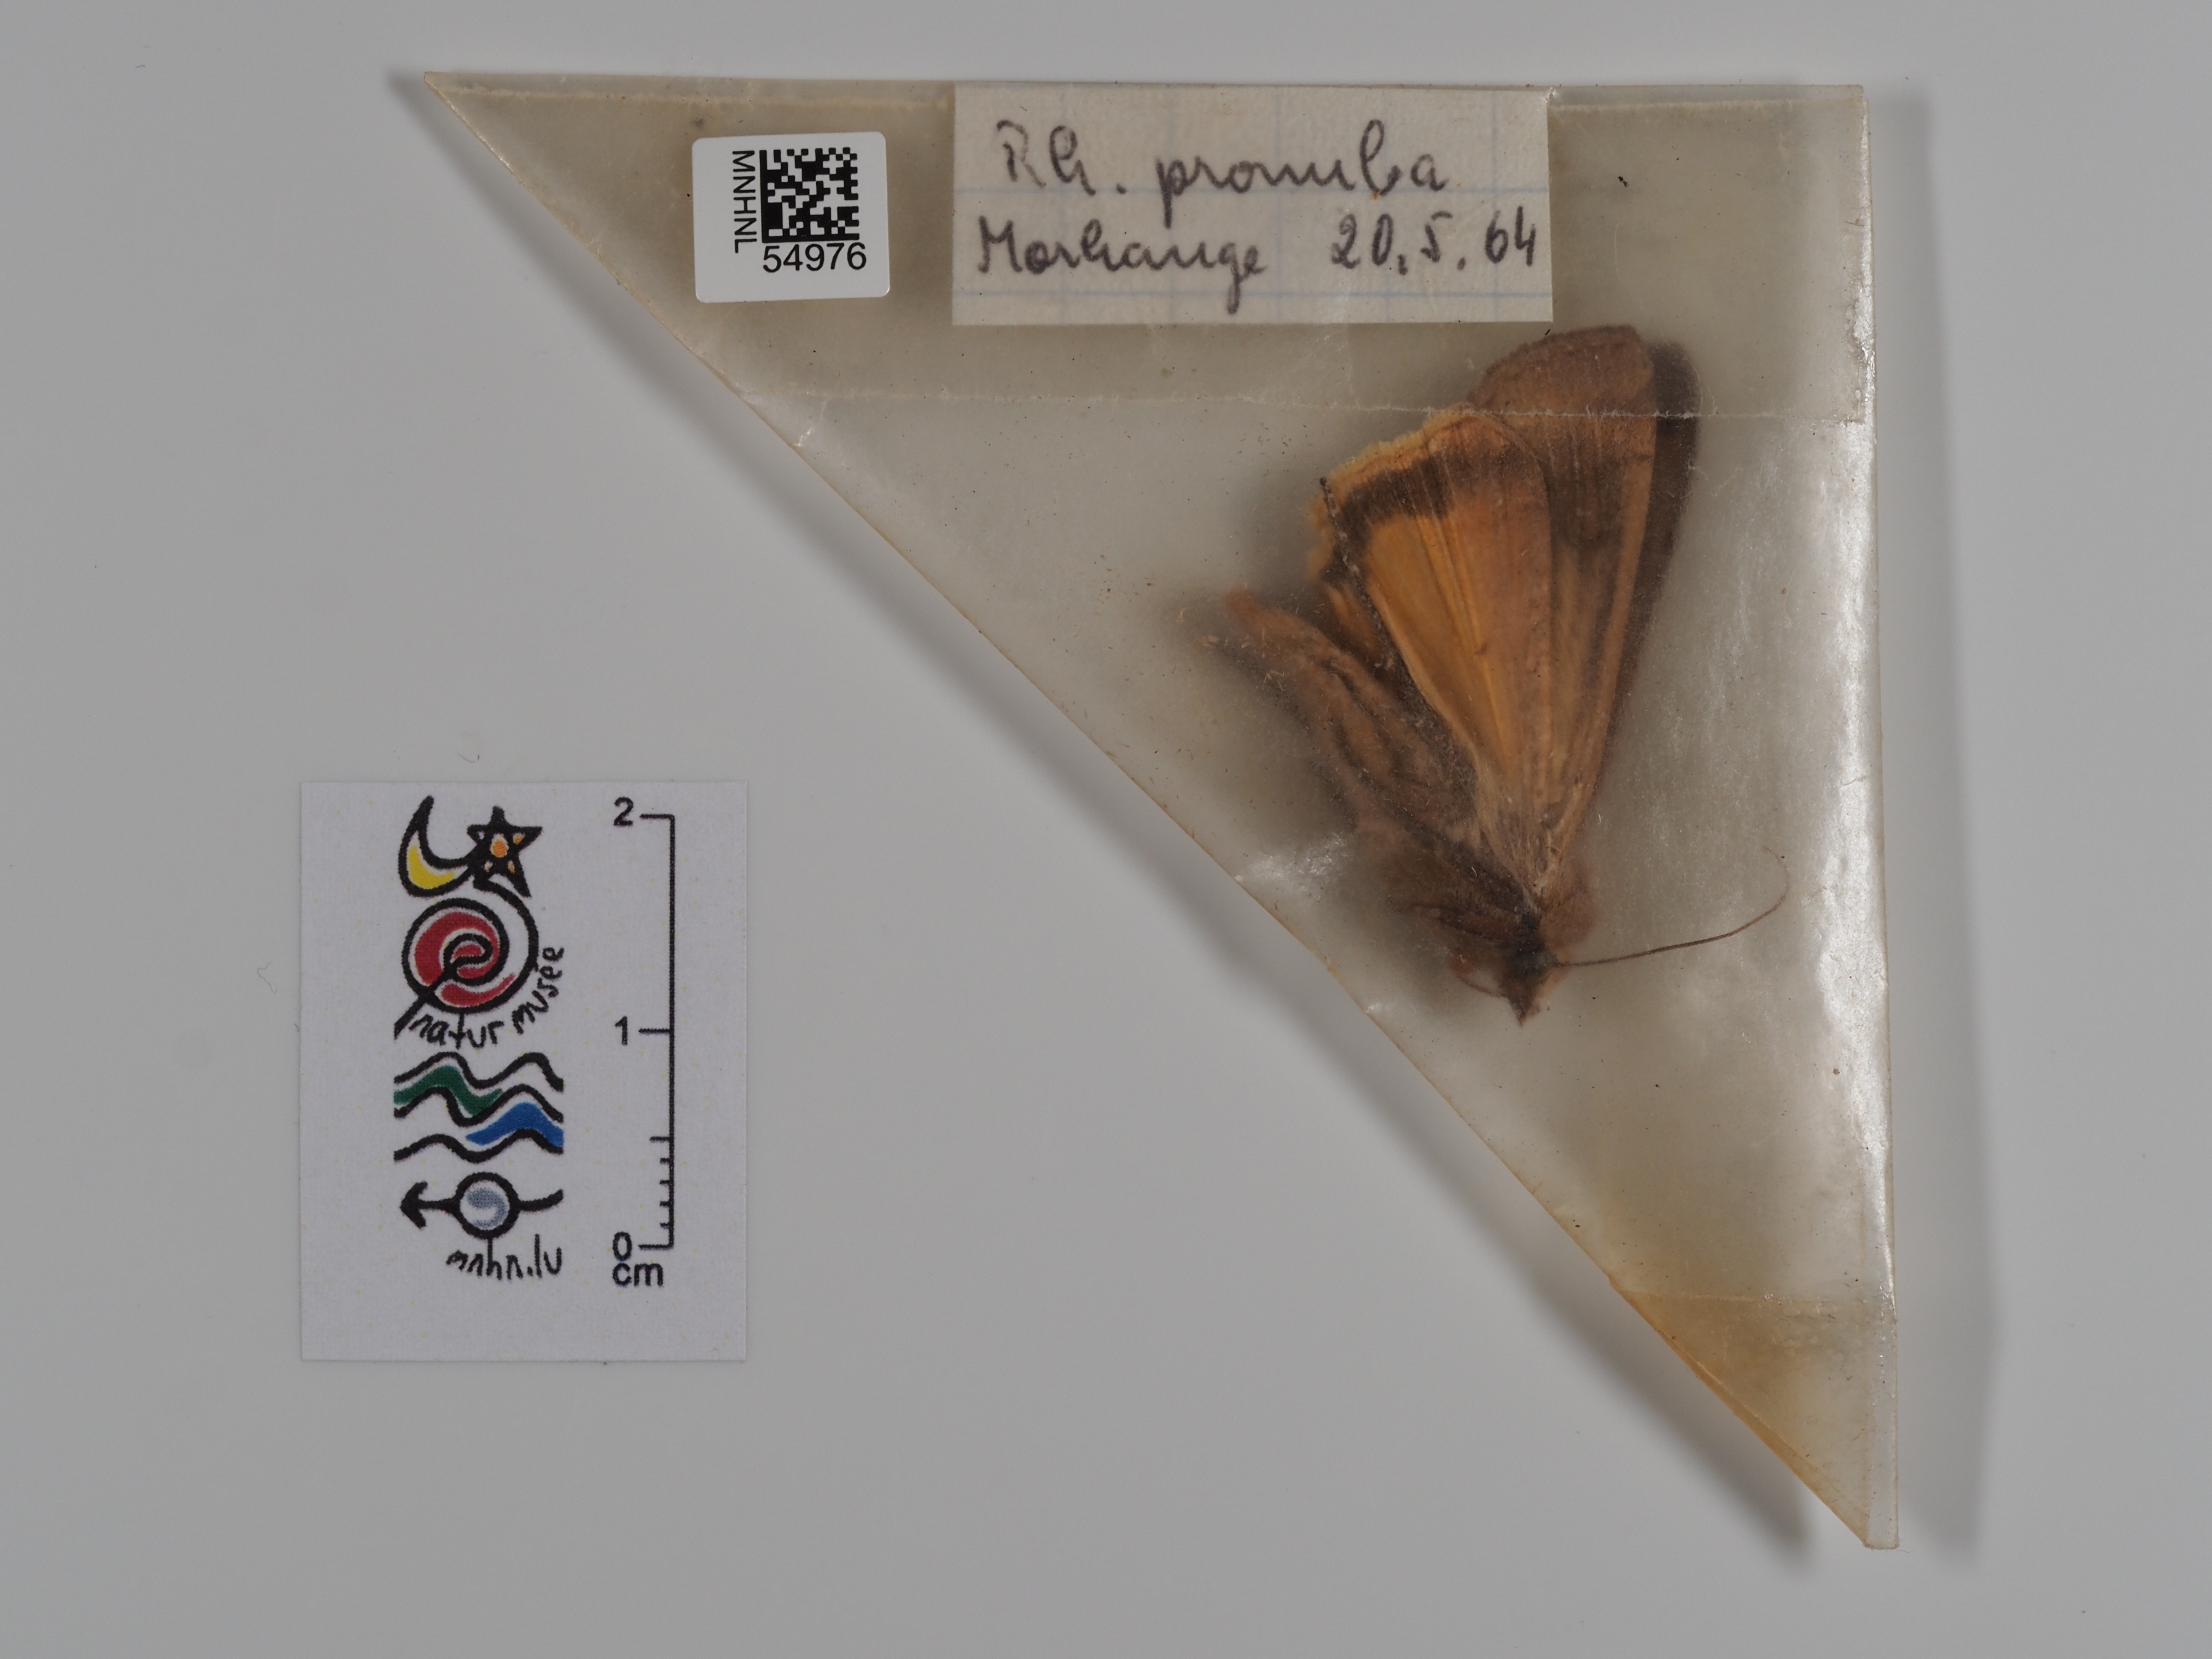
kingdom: Animalia
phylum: Arthropoda
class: Insecta
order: Lepidoptera
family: Noctuidae
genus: Noctua
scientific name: Noctua pronuba
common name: Large yellow underwing
